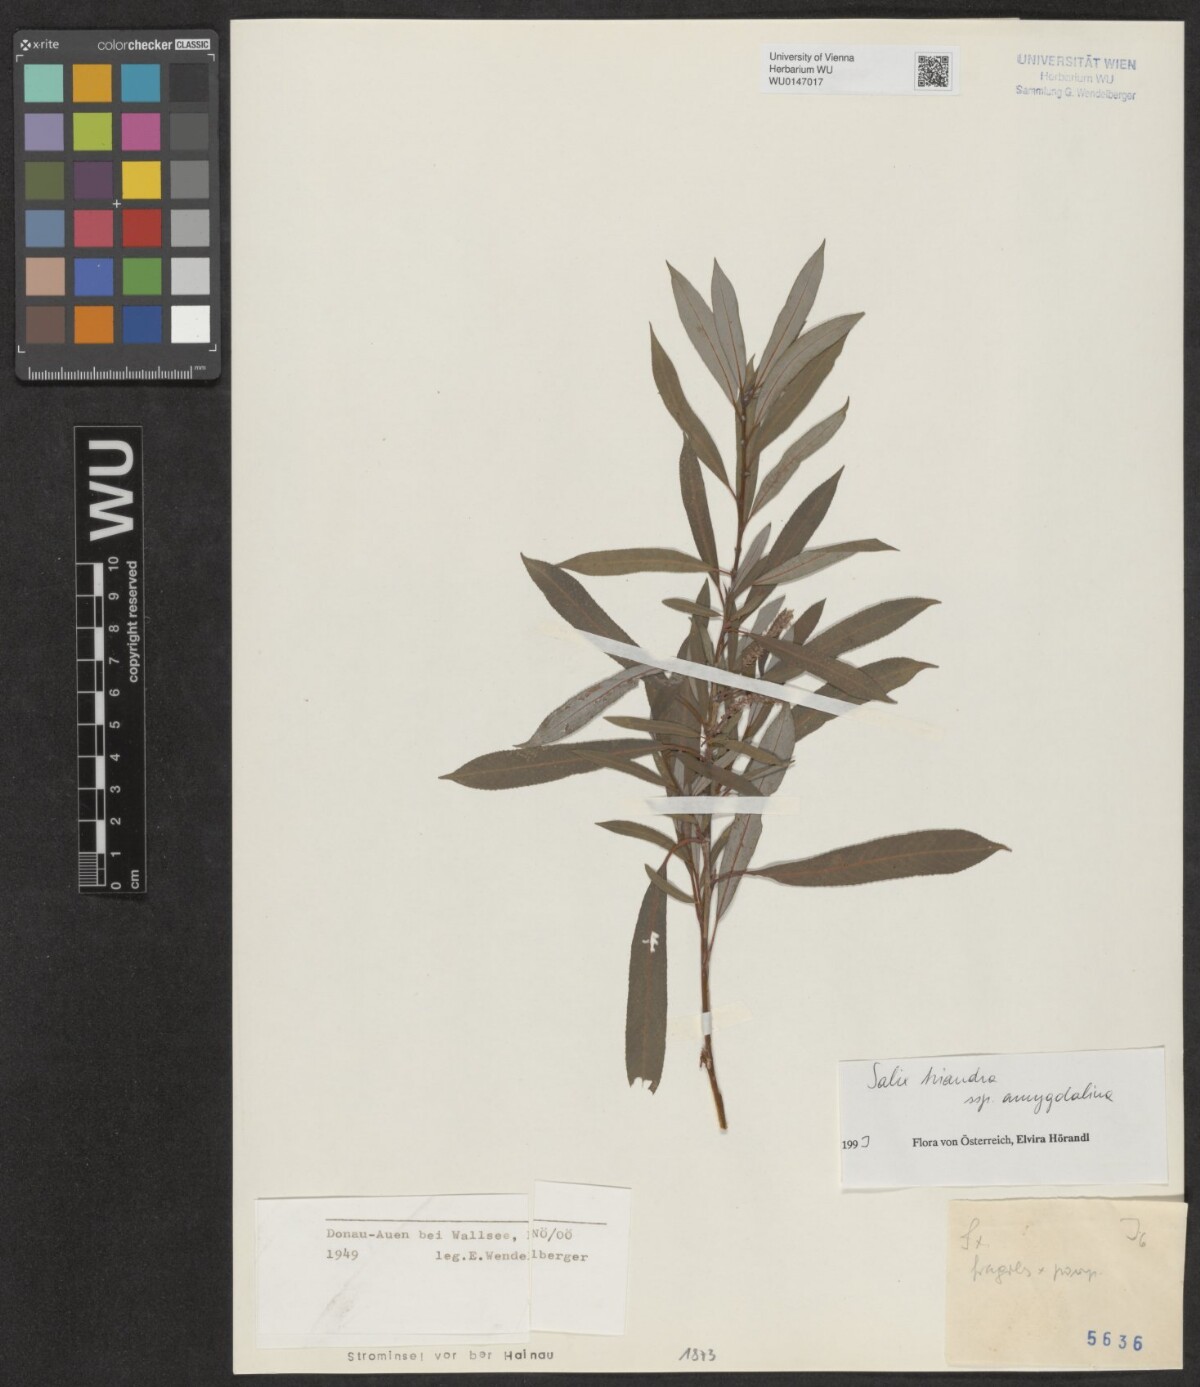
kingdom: Plantae
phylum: Tracheophyta
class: Magnoliopsida
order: Malpighiales
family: Salicaceae
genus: Salix
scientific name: Salix triandra
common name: Almond willow
